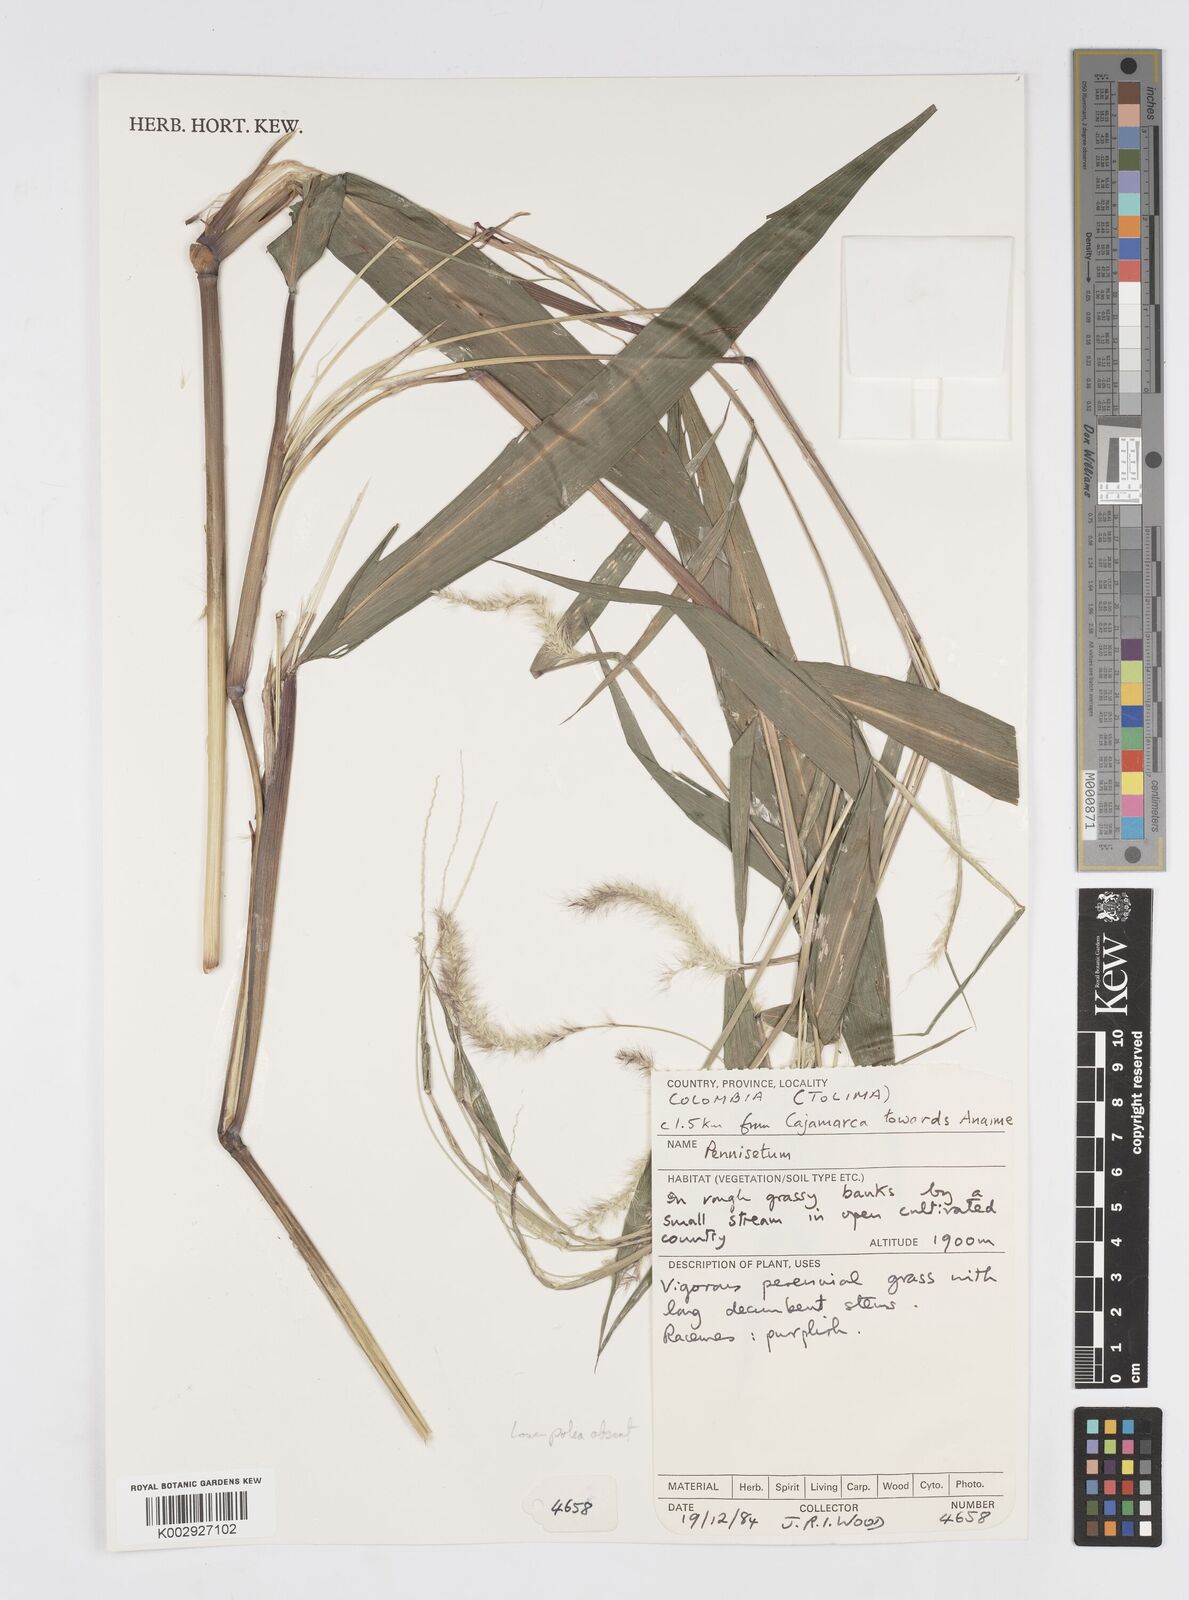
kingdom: Plantae
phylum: Tracheophyta
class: Liliopsida
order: Poales
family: Poaceae
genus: Cenchrus
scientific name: Cenchrus tristachyus
